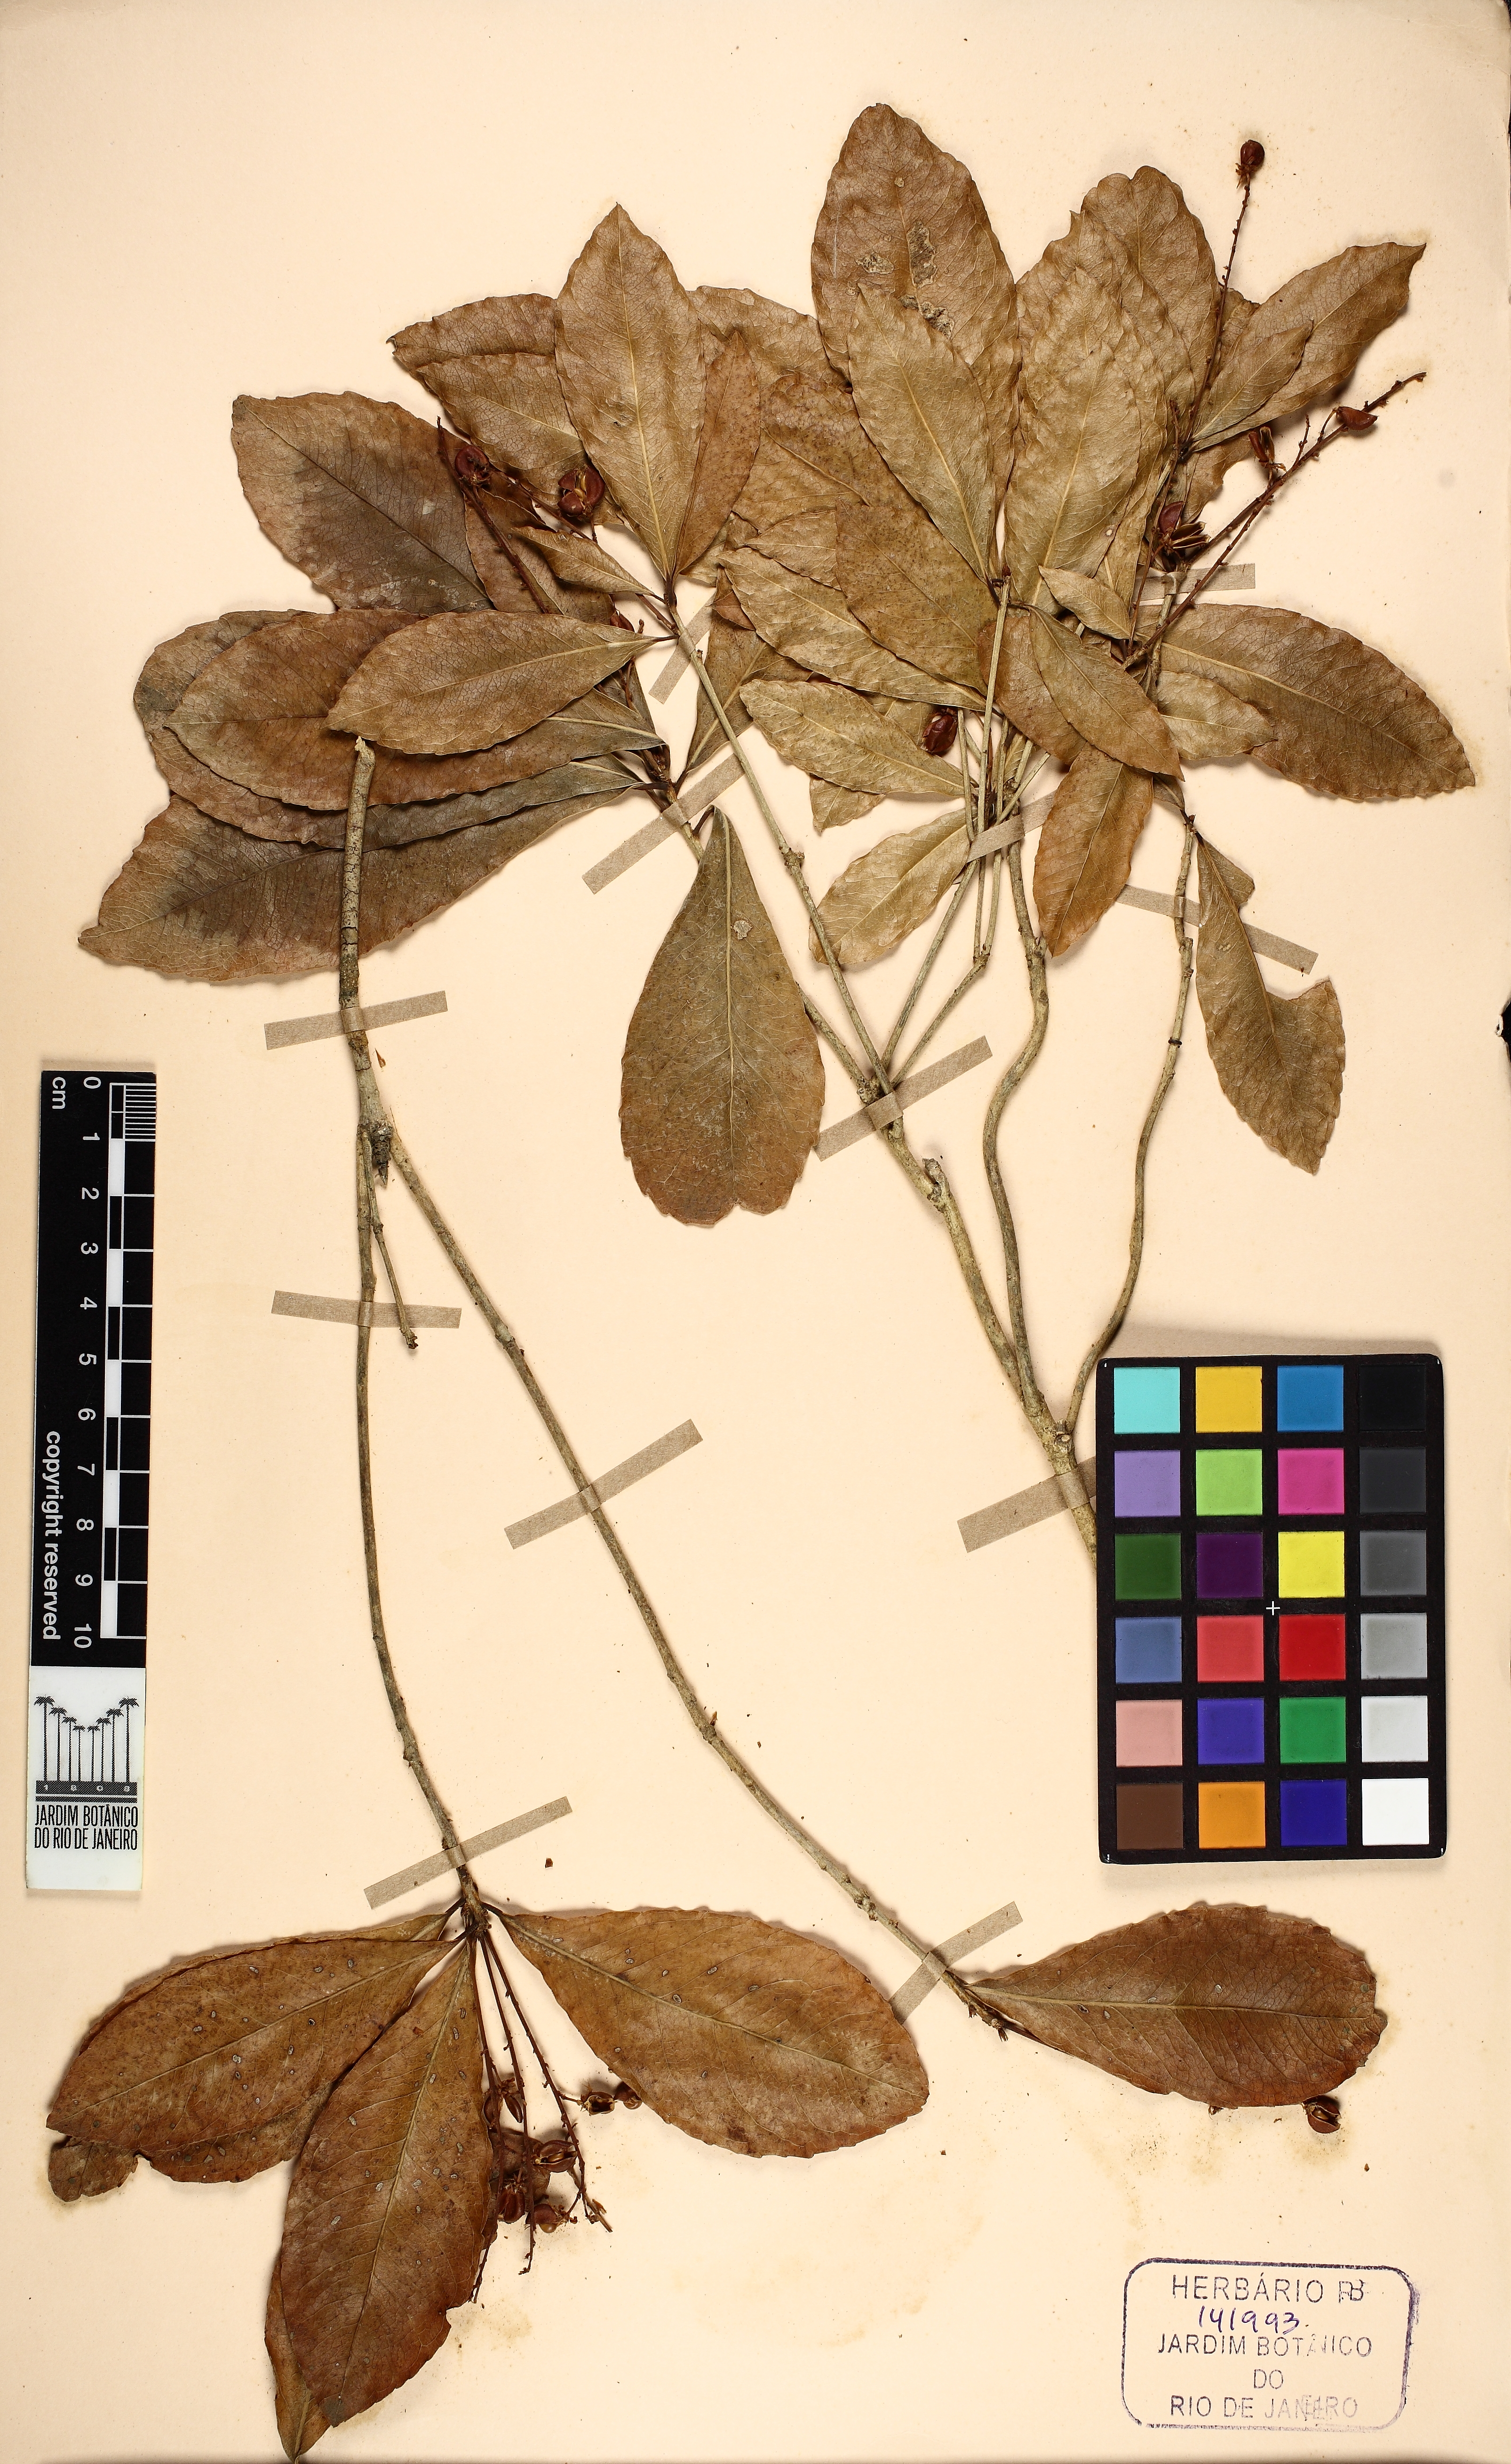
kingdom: Plantae
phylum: Tracheophyta
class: Magnoliopsida
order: Malpighiales
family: Violaceae
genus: Rinorea
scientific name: Rinorea laevigata
